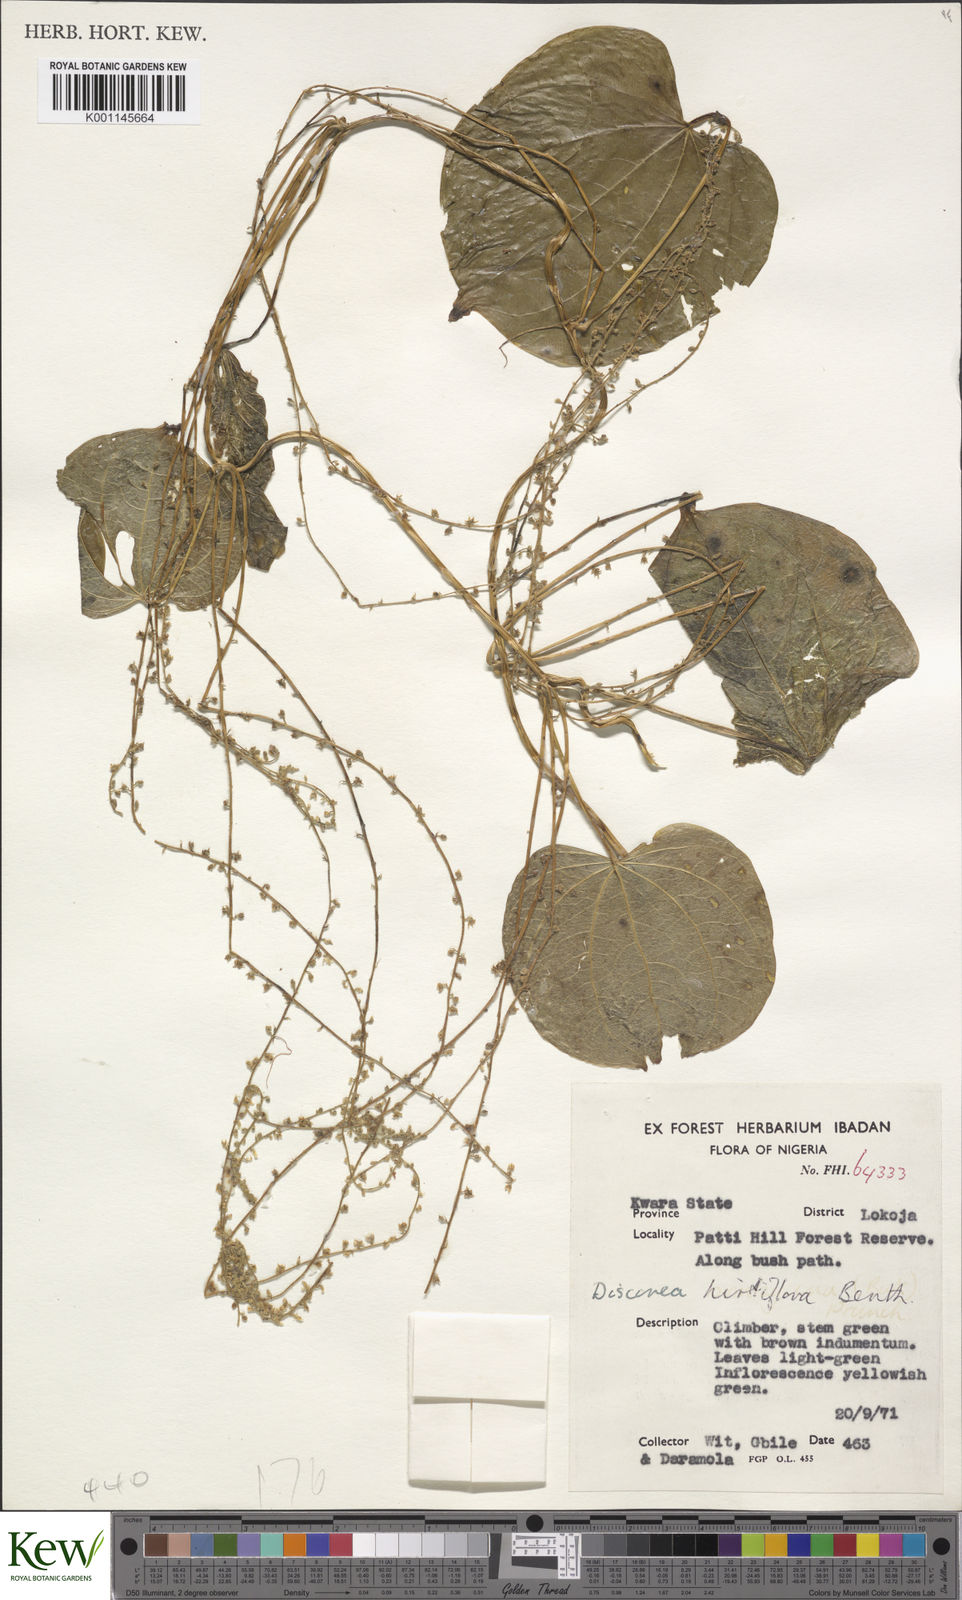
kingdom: Plantae
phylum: Tracheophyta
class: Liliopsida
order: Dioscoreales
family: Dioscoreaceae
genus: Dioscorea
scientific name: Dioscorea hirtiflora
